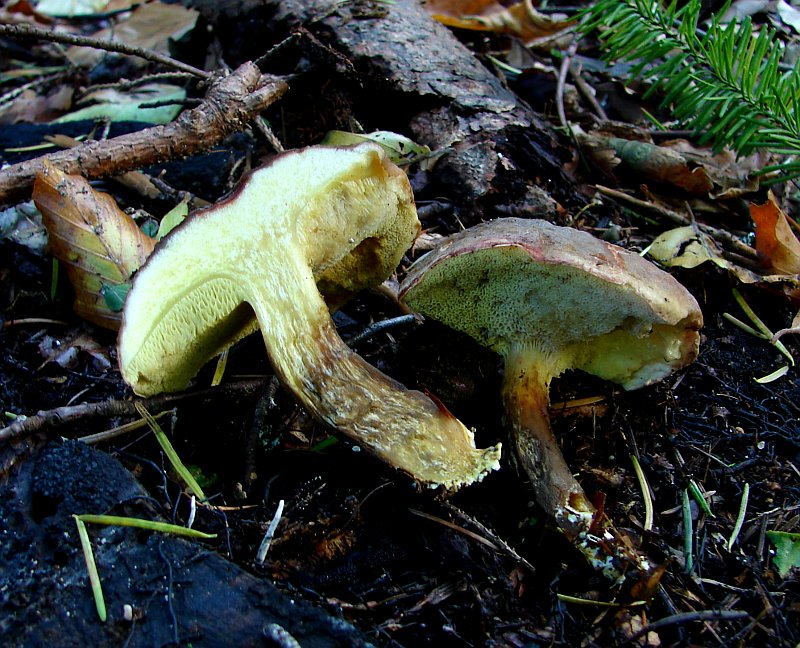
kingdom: Fungi
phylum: Basidiomycota
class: Agaricomycetes
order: Boletales
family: Boletaceae
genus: Xerocomellus
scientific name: Xerocomellus pruinatus
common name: dugget rørhat
